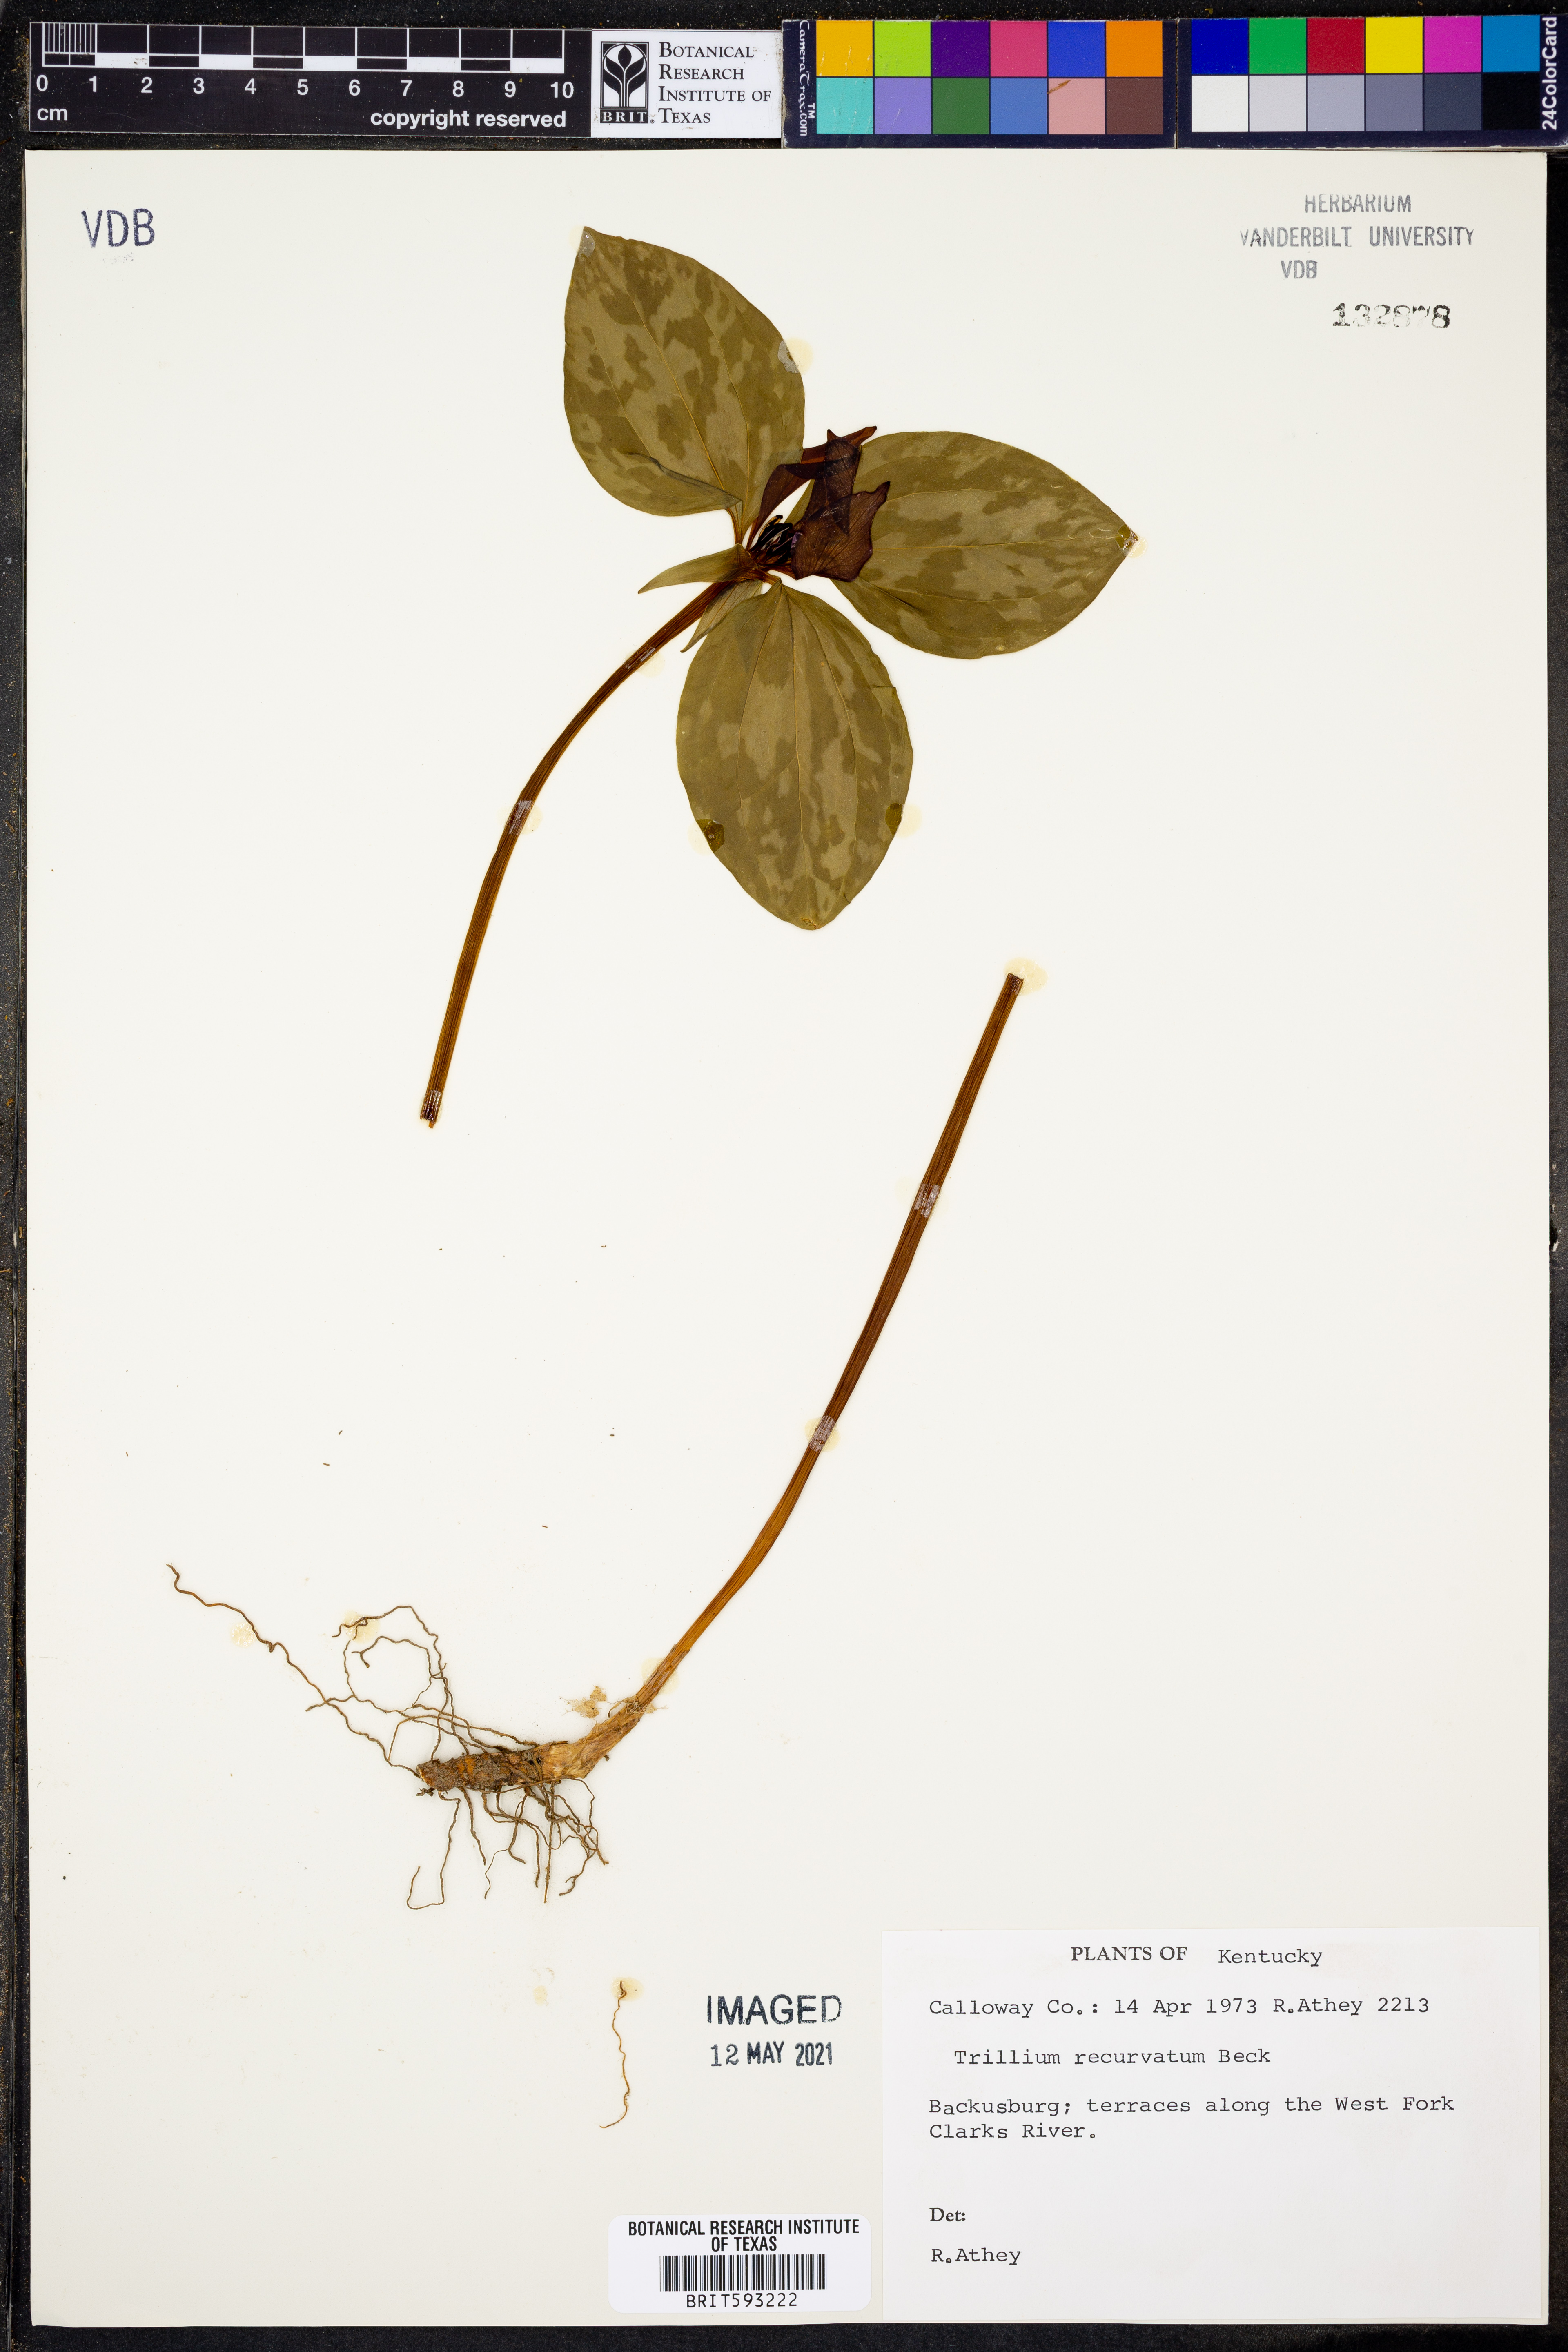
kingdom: Plantae
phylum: Tracheophyta
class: Liliopsida
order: Liliales
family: Melanthiaceae
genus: Trillium
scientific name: Trillium recurvatum
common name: Bloody butcher
